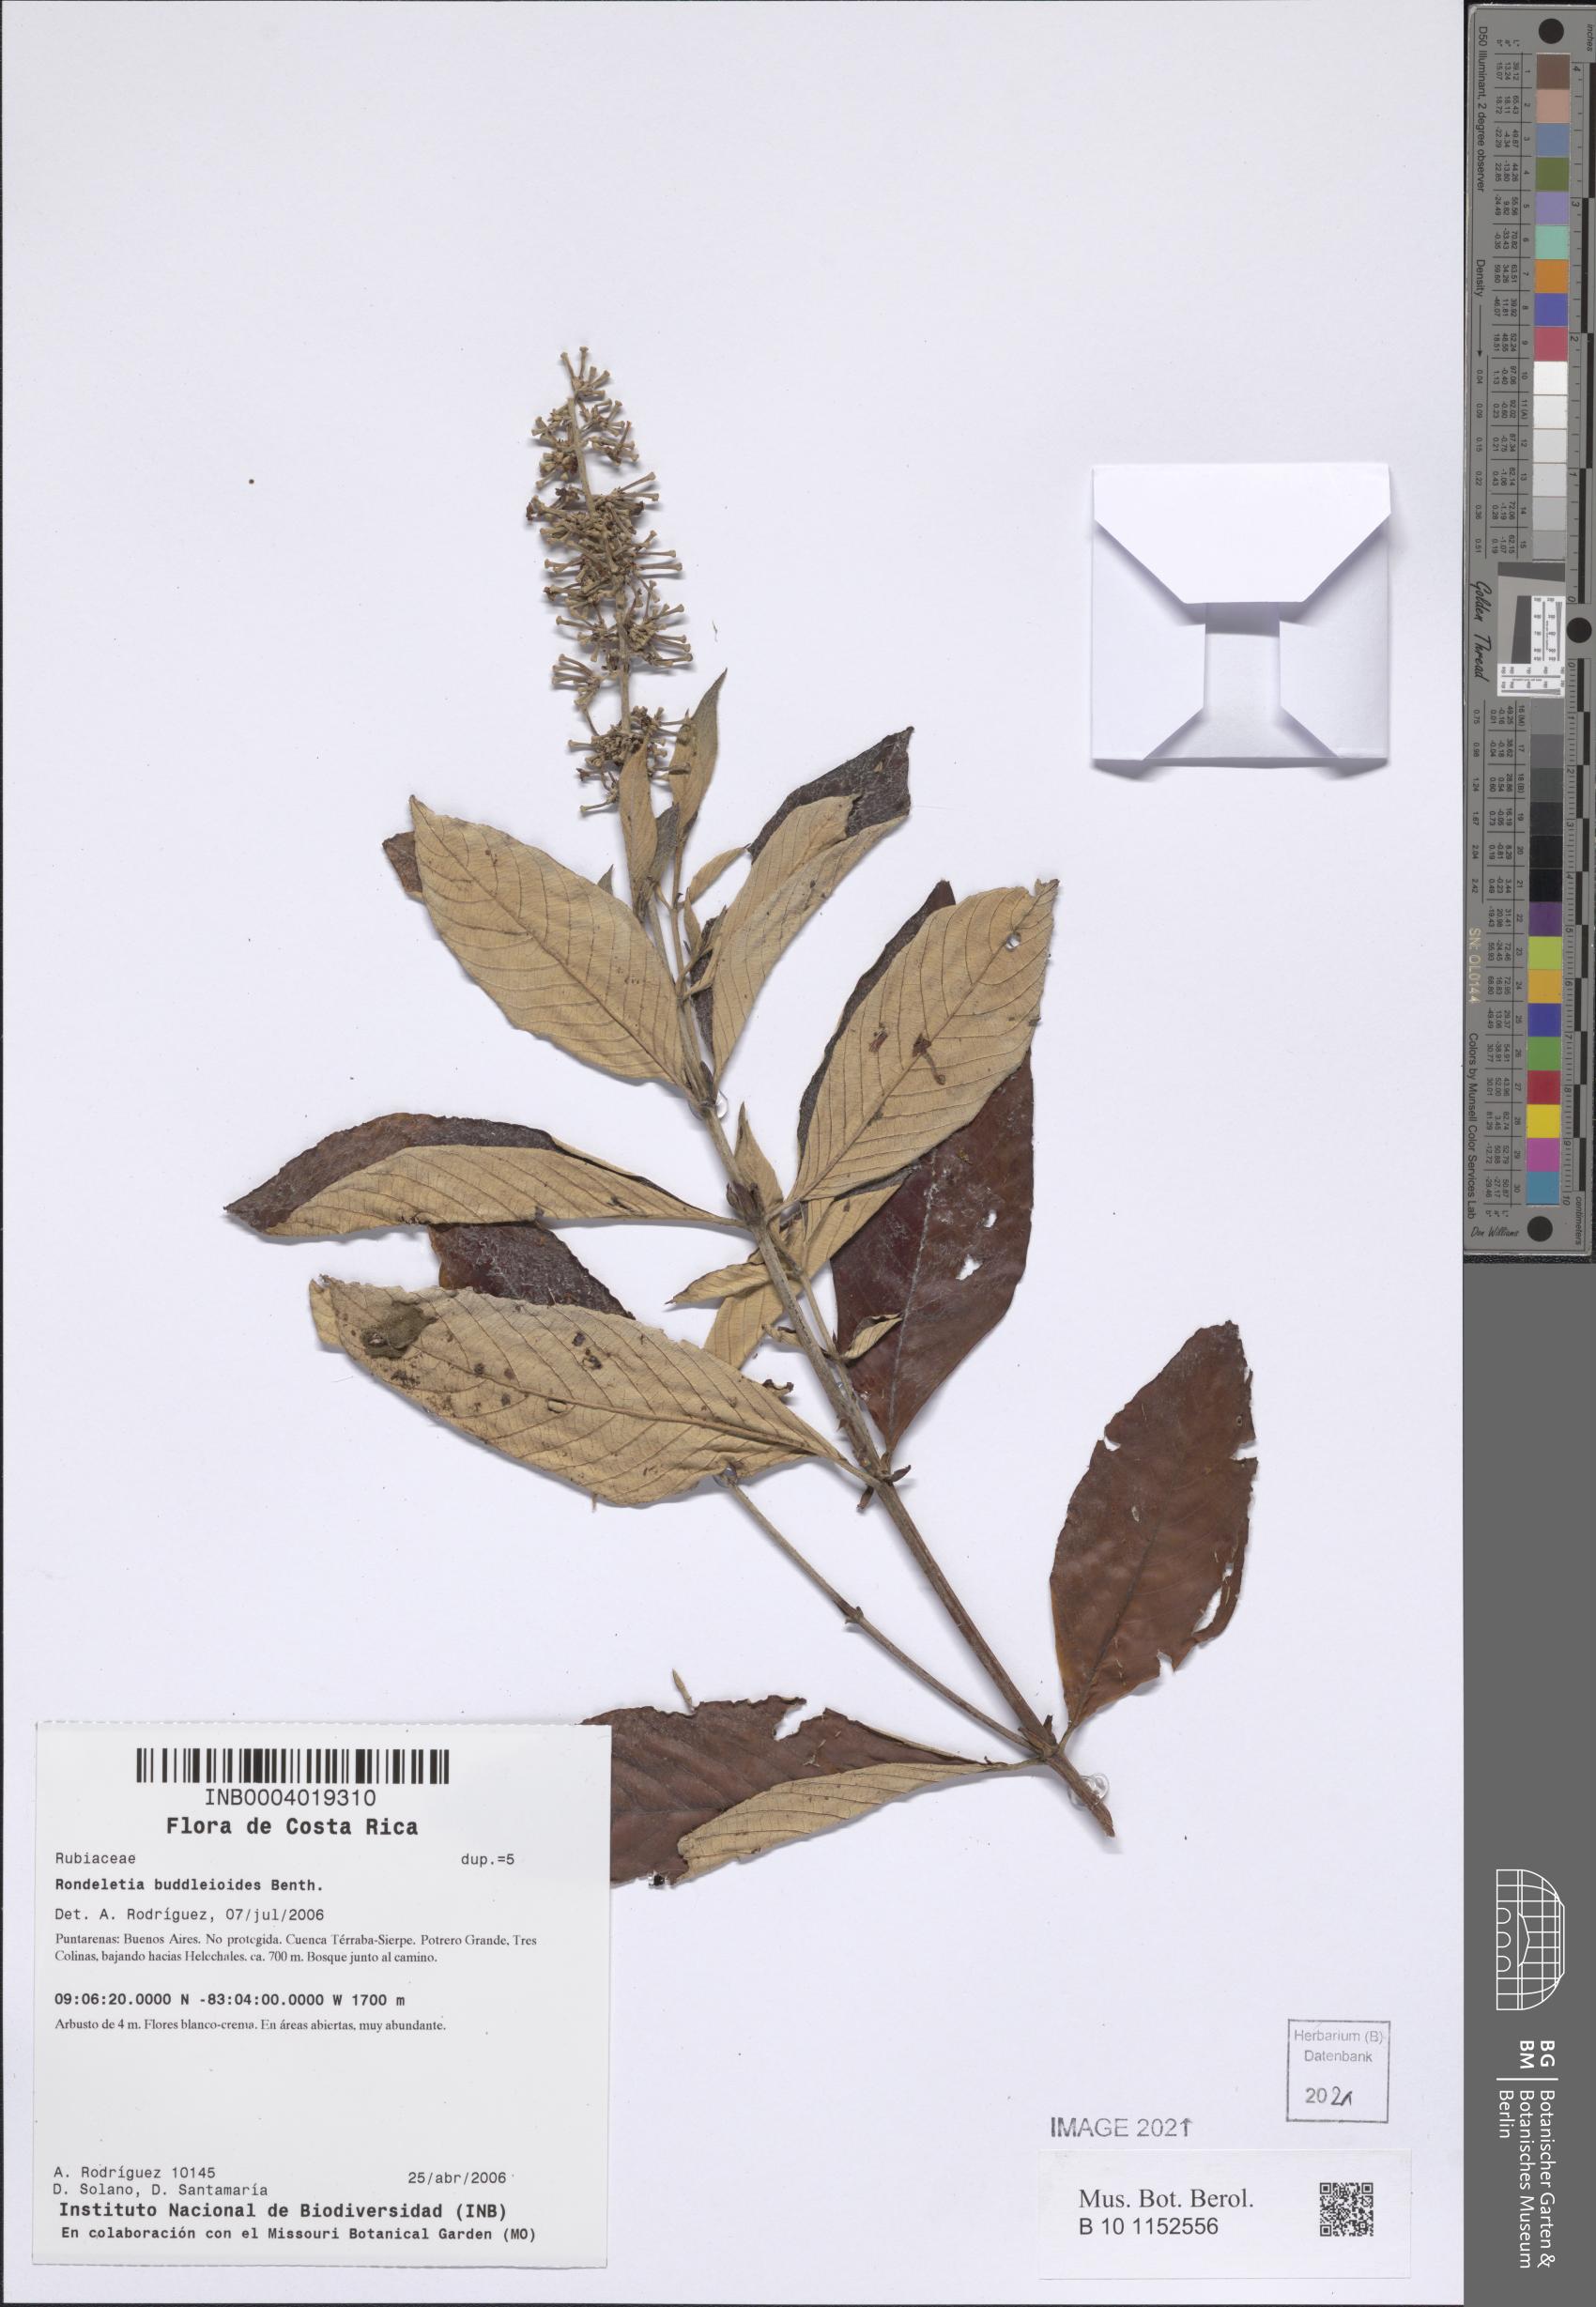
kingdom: Plantae
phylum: Tracheophyta
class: Magnoliopsida
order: Gentianales
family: Rubiaceae
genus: Arachnothryx
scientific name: Arachnothryx buddleioides
